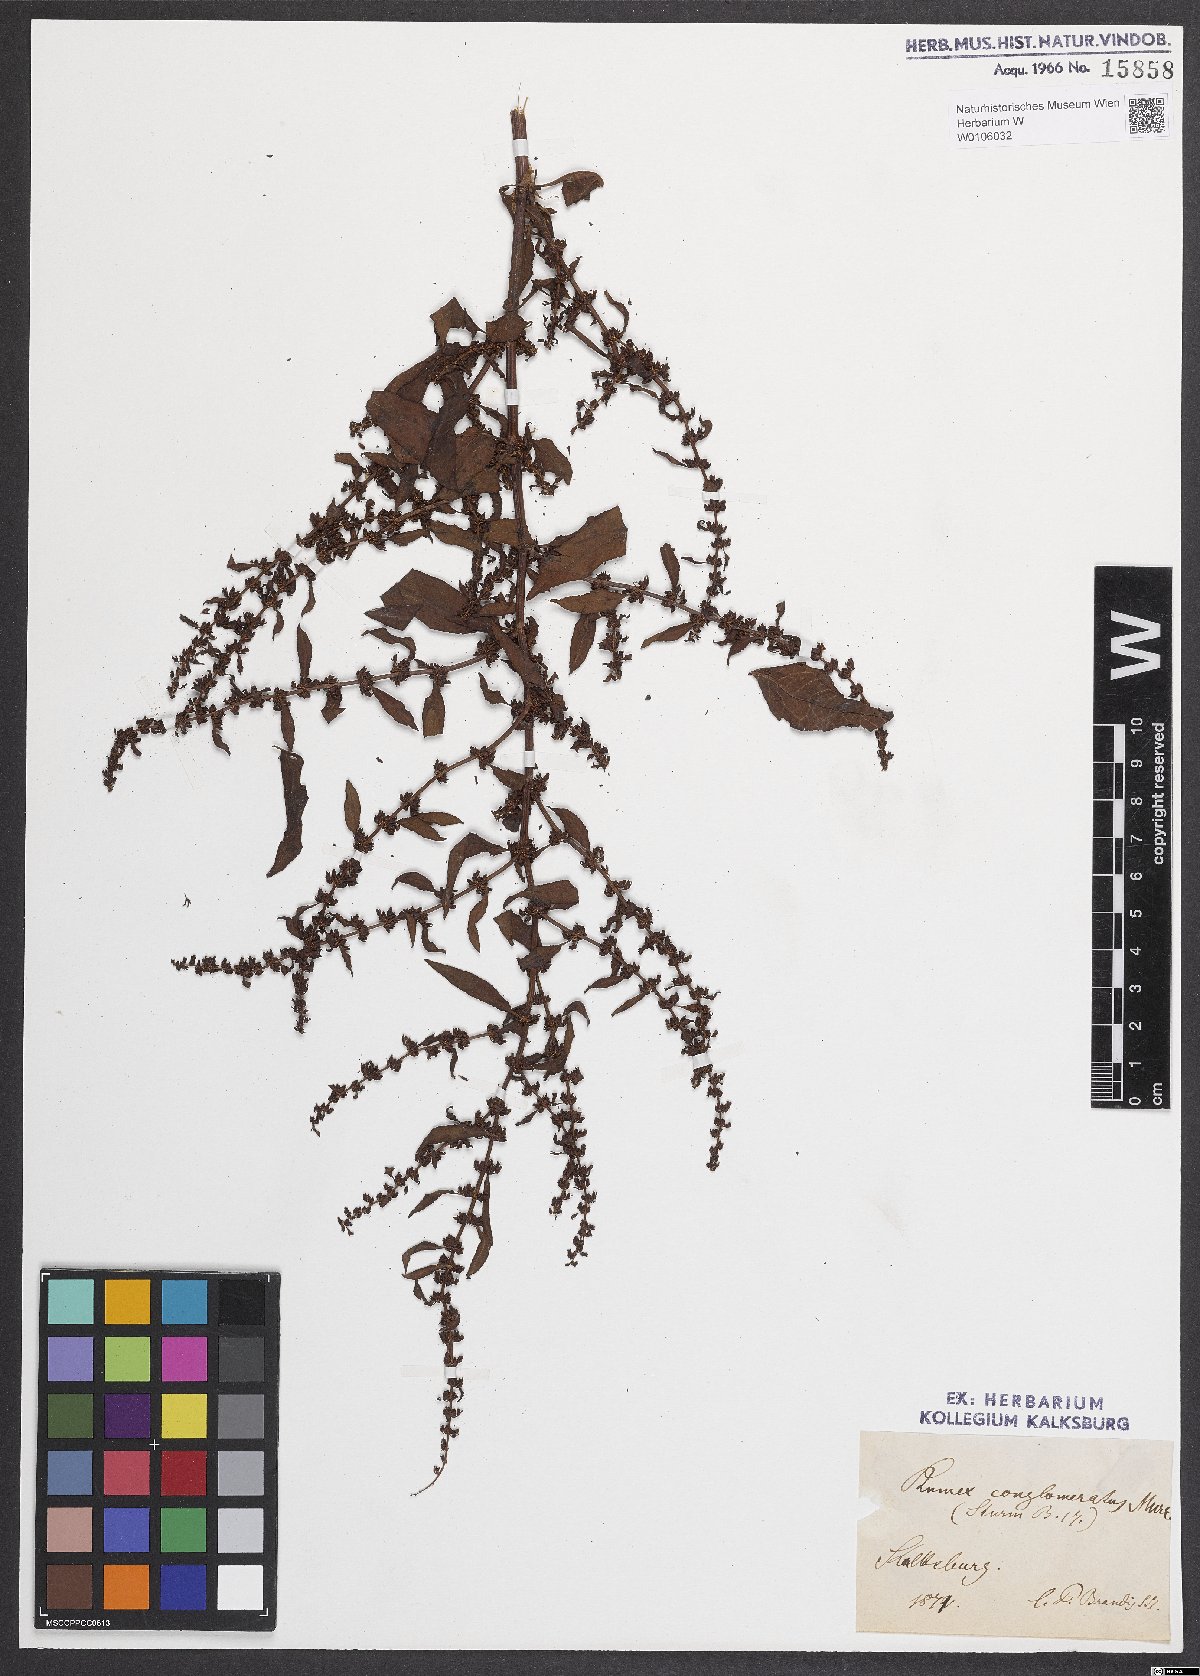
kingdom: Plantae
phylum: Tracheophyta
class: Magnoliopsida
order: Caryophyllales
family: Polygonaceae
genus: Rumex
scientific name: Rumex conglomeratus
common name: Clustered dock
